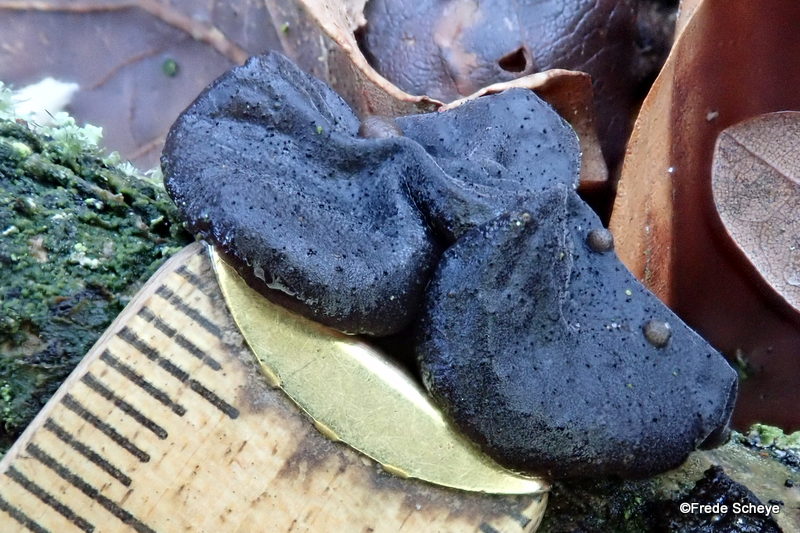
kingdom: Fungi
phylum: Basidiomycota
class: Agaricomycetes
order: Auriculariales
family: Auriculariaceae
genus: Exidia
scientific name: Exidia glandulosa
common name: ege-bævretop
